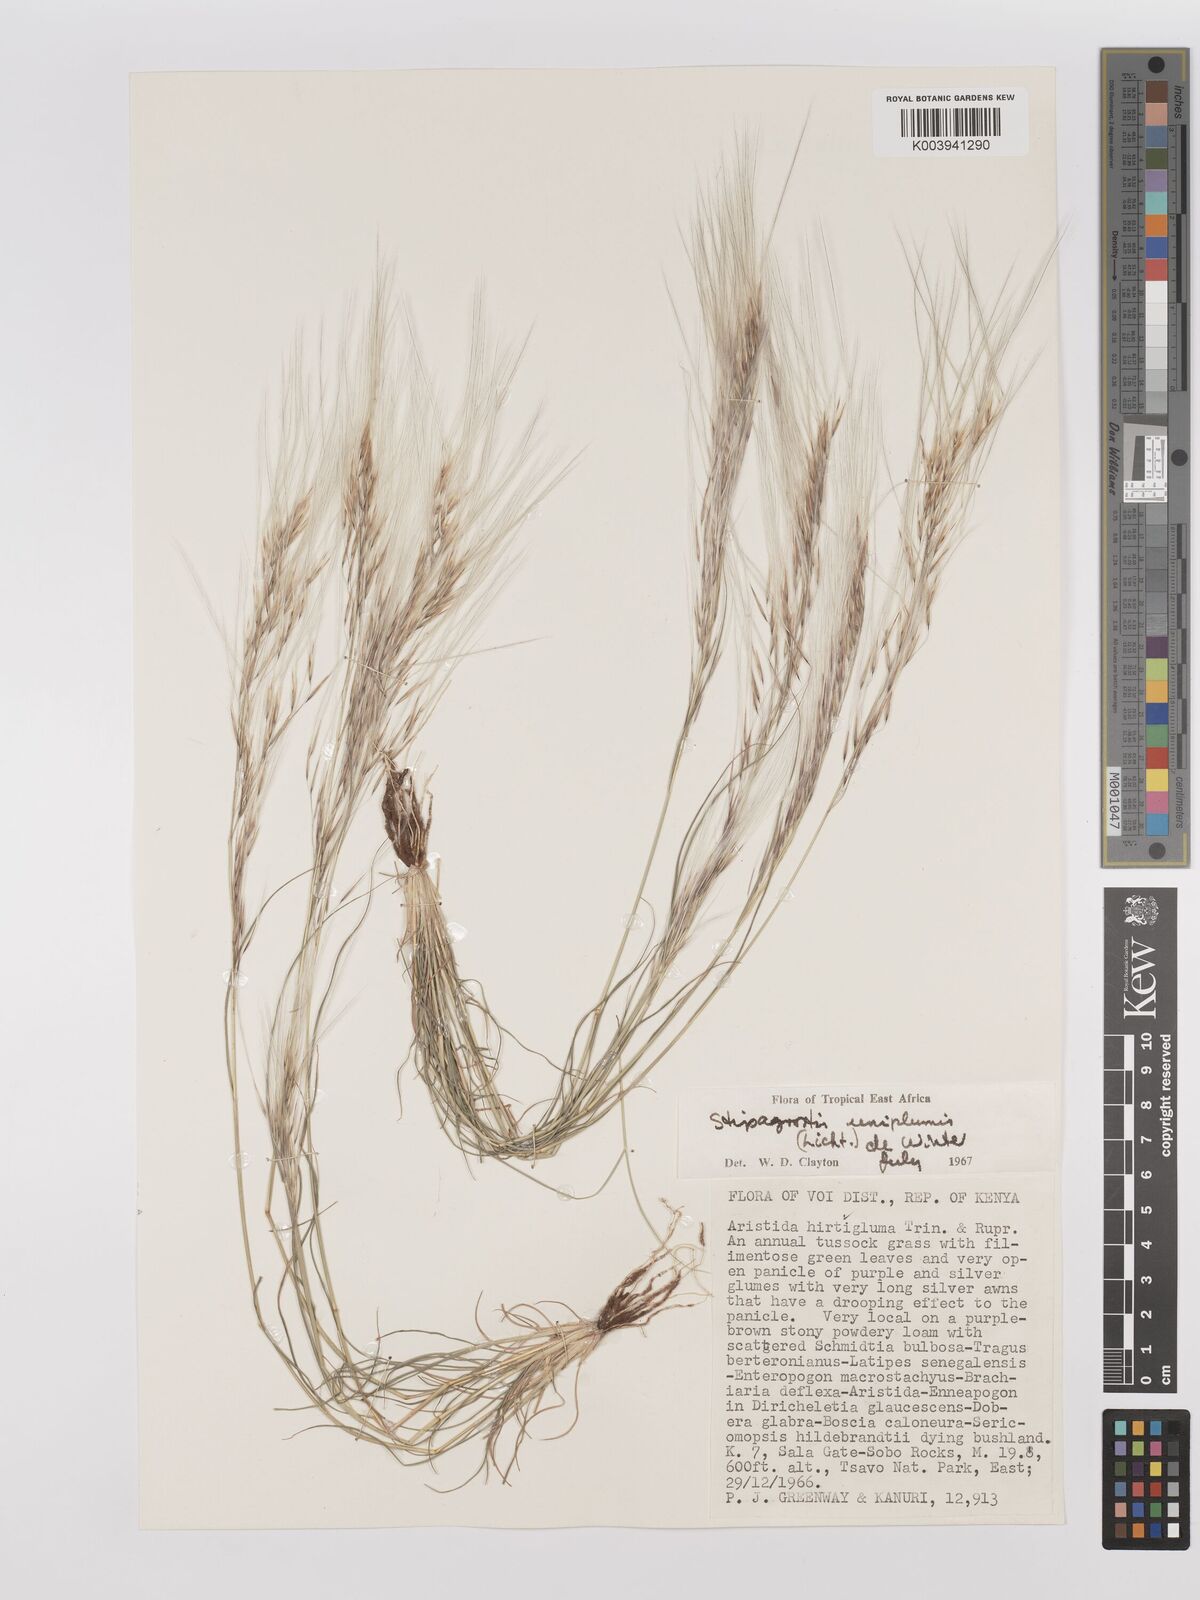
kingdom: Plantae
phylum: Tracheophyta
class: Liliopsida
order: Poales
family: Poaceae
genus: Stipagrostis
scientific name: Stipagrostis uniplumis
